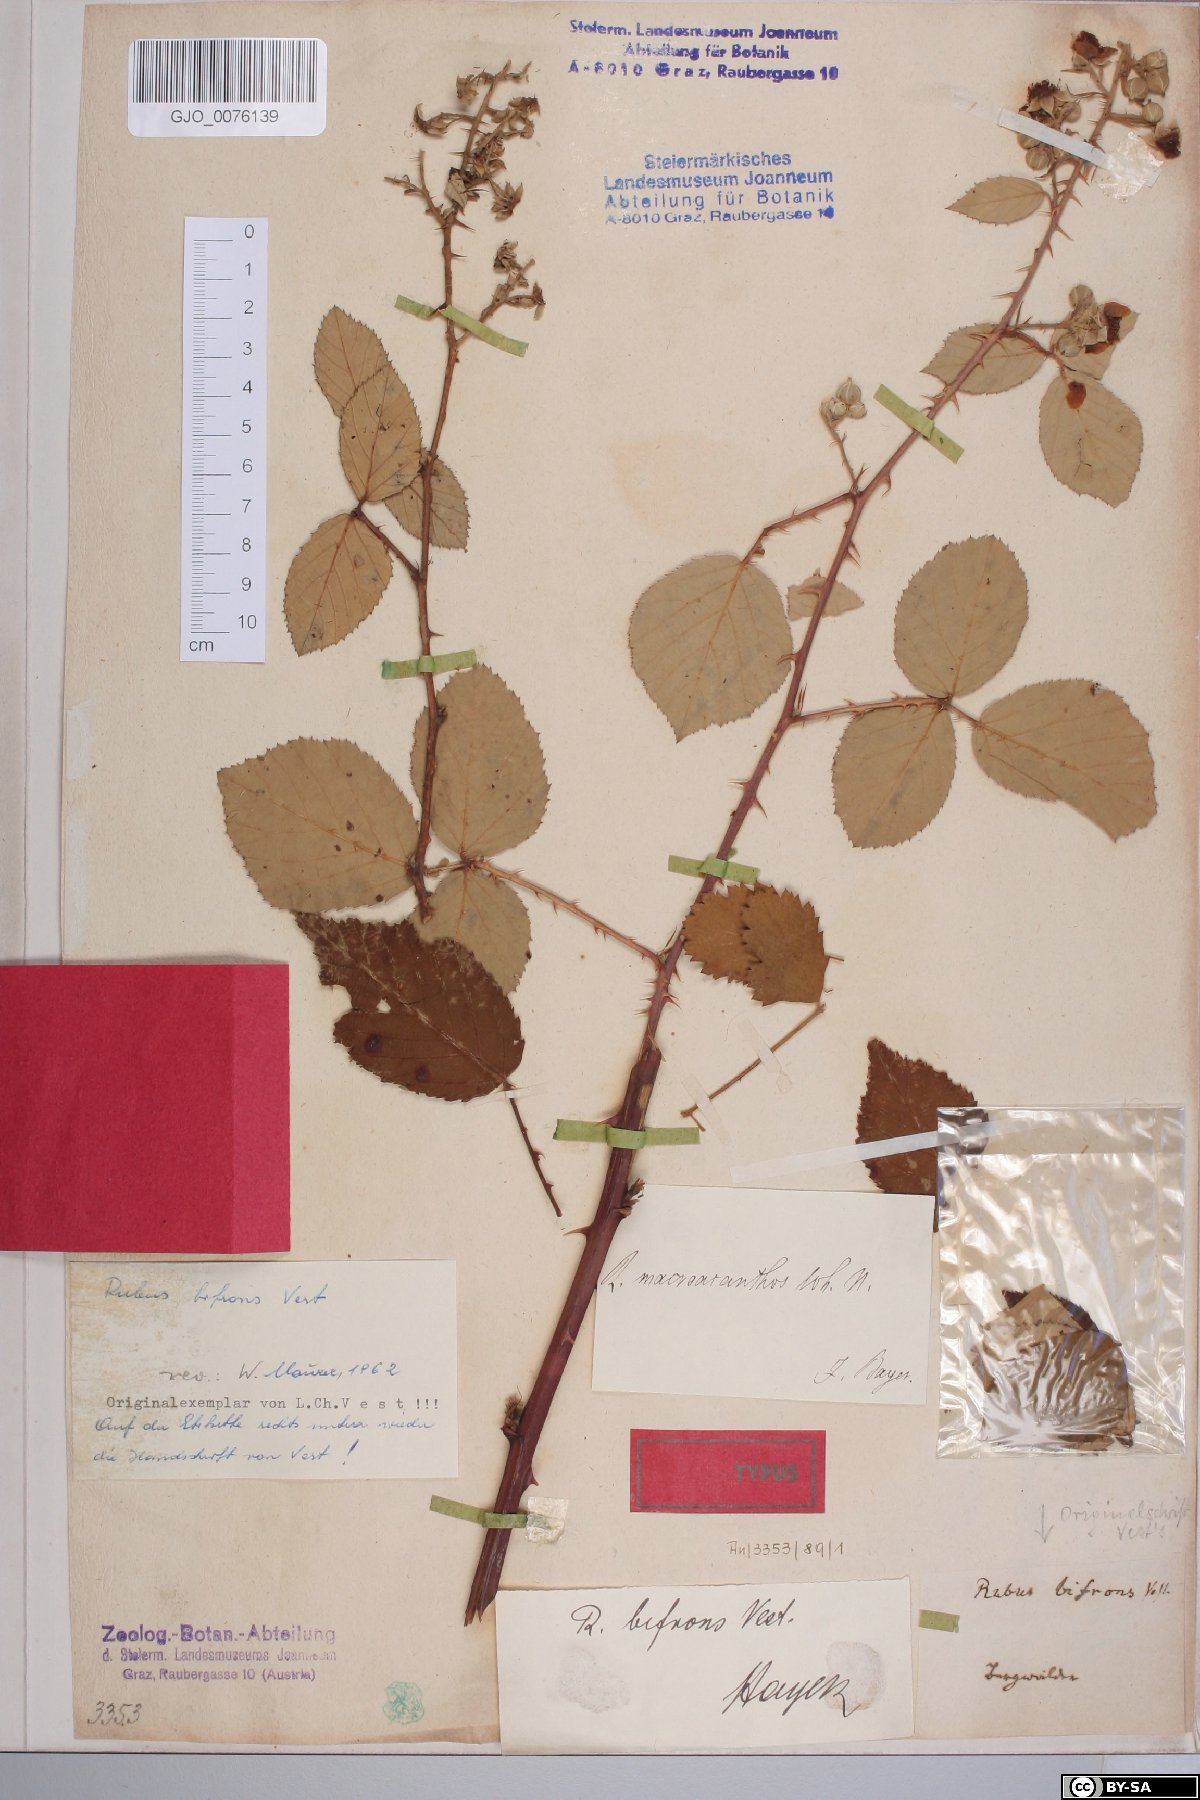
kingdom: Plantae
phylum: Tracheophyta
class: Magnoliopsida
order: Rosales
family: Rosaceae
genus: Rubus
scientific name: Rubus bifrons
